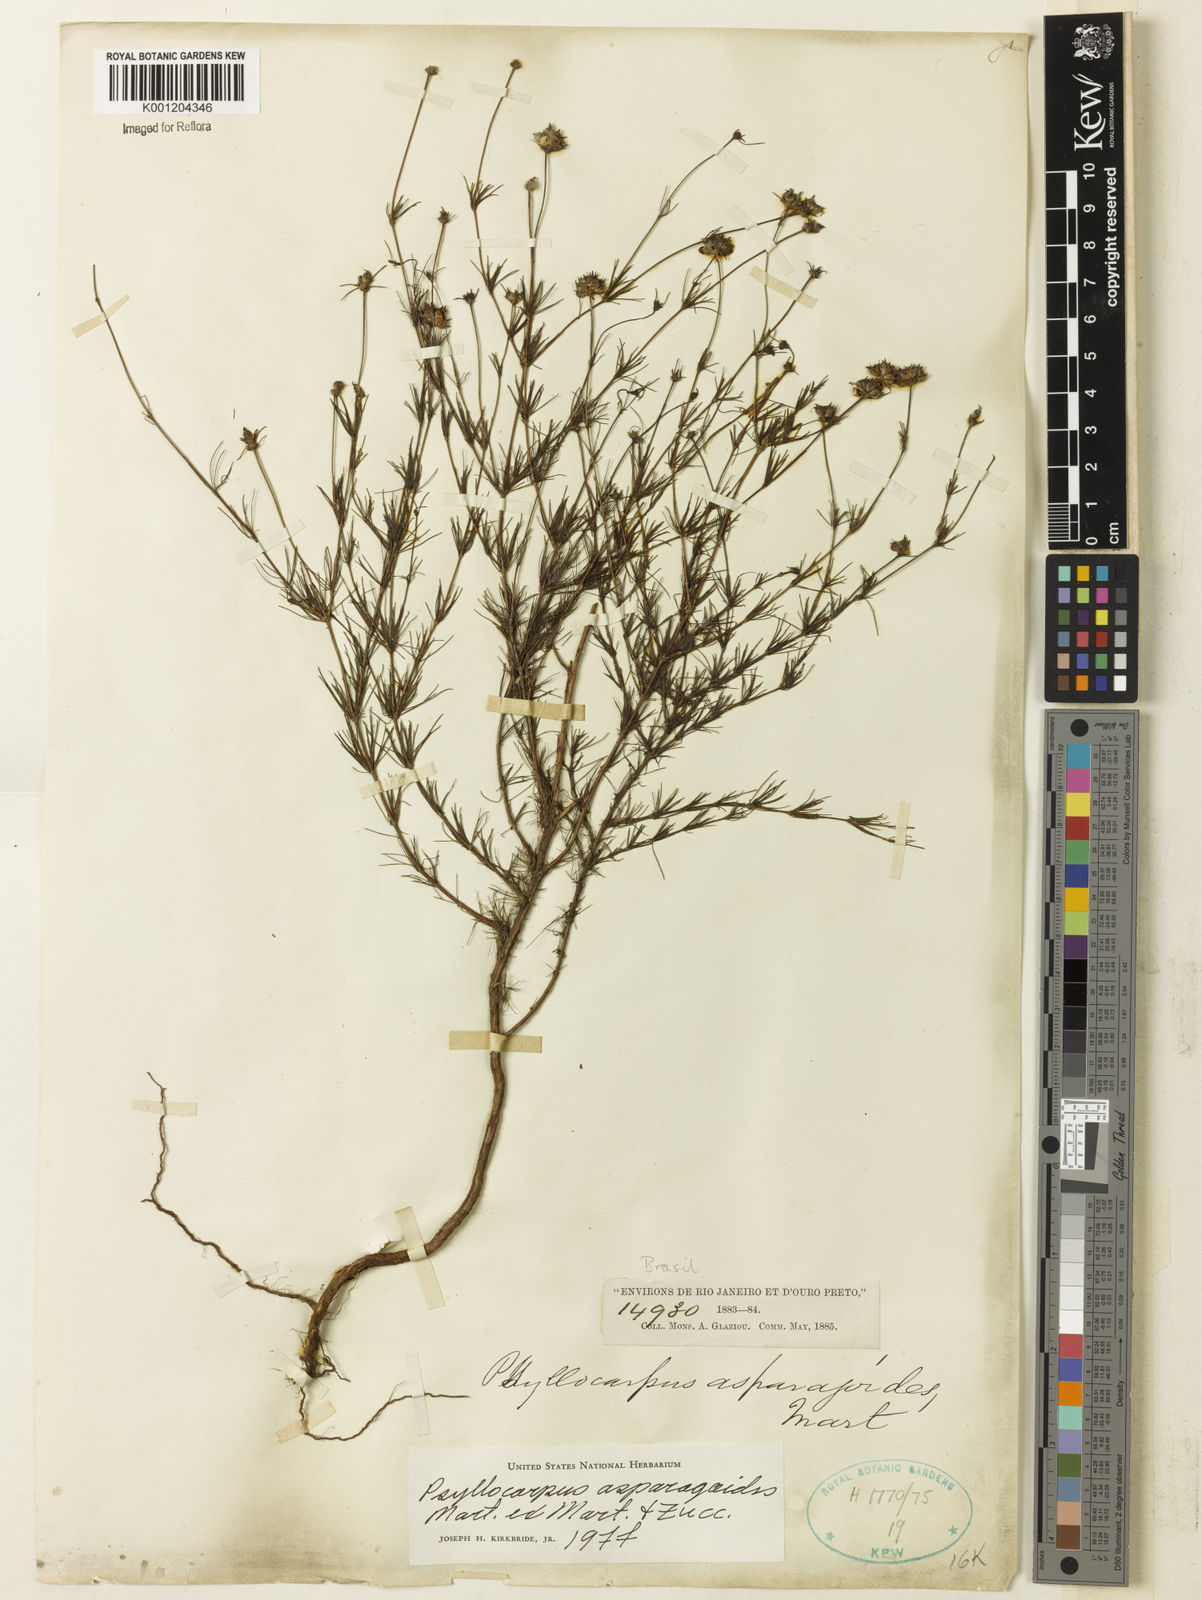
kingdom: Plantae
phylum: Tracheophyta
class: Magnoliopsida
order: Gentianales
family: Rubiaceae
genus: Psyllocarpus
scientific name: Psyllocarpus asparagoides
